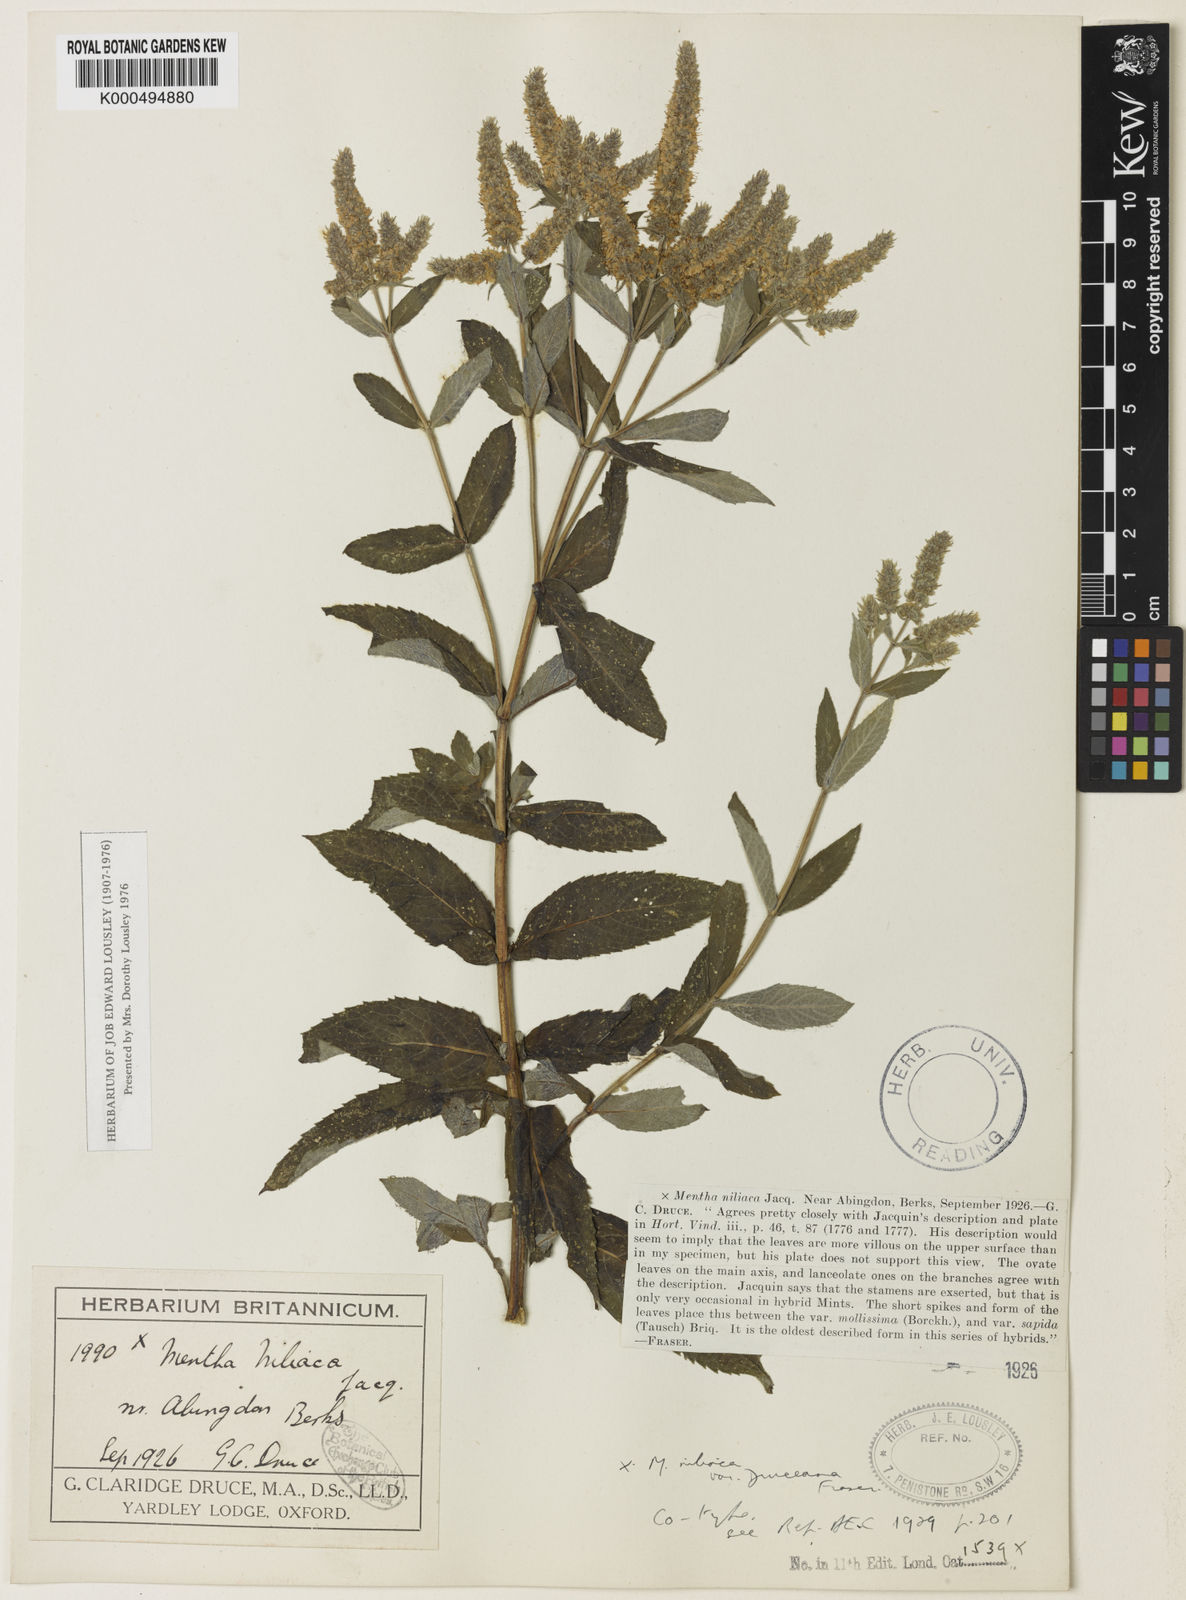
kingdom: Plantae
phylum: Tracheophyta
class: Magnoliopsida
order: Lamiales
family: Lamiaceae
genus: Mentha
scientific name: Mentha villosa
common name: Apple mint
